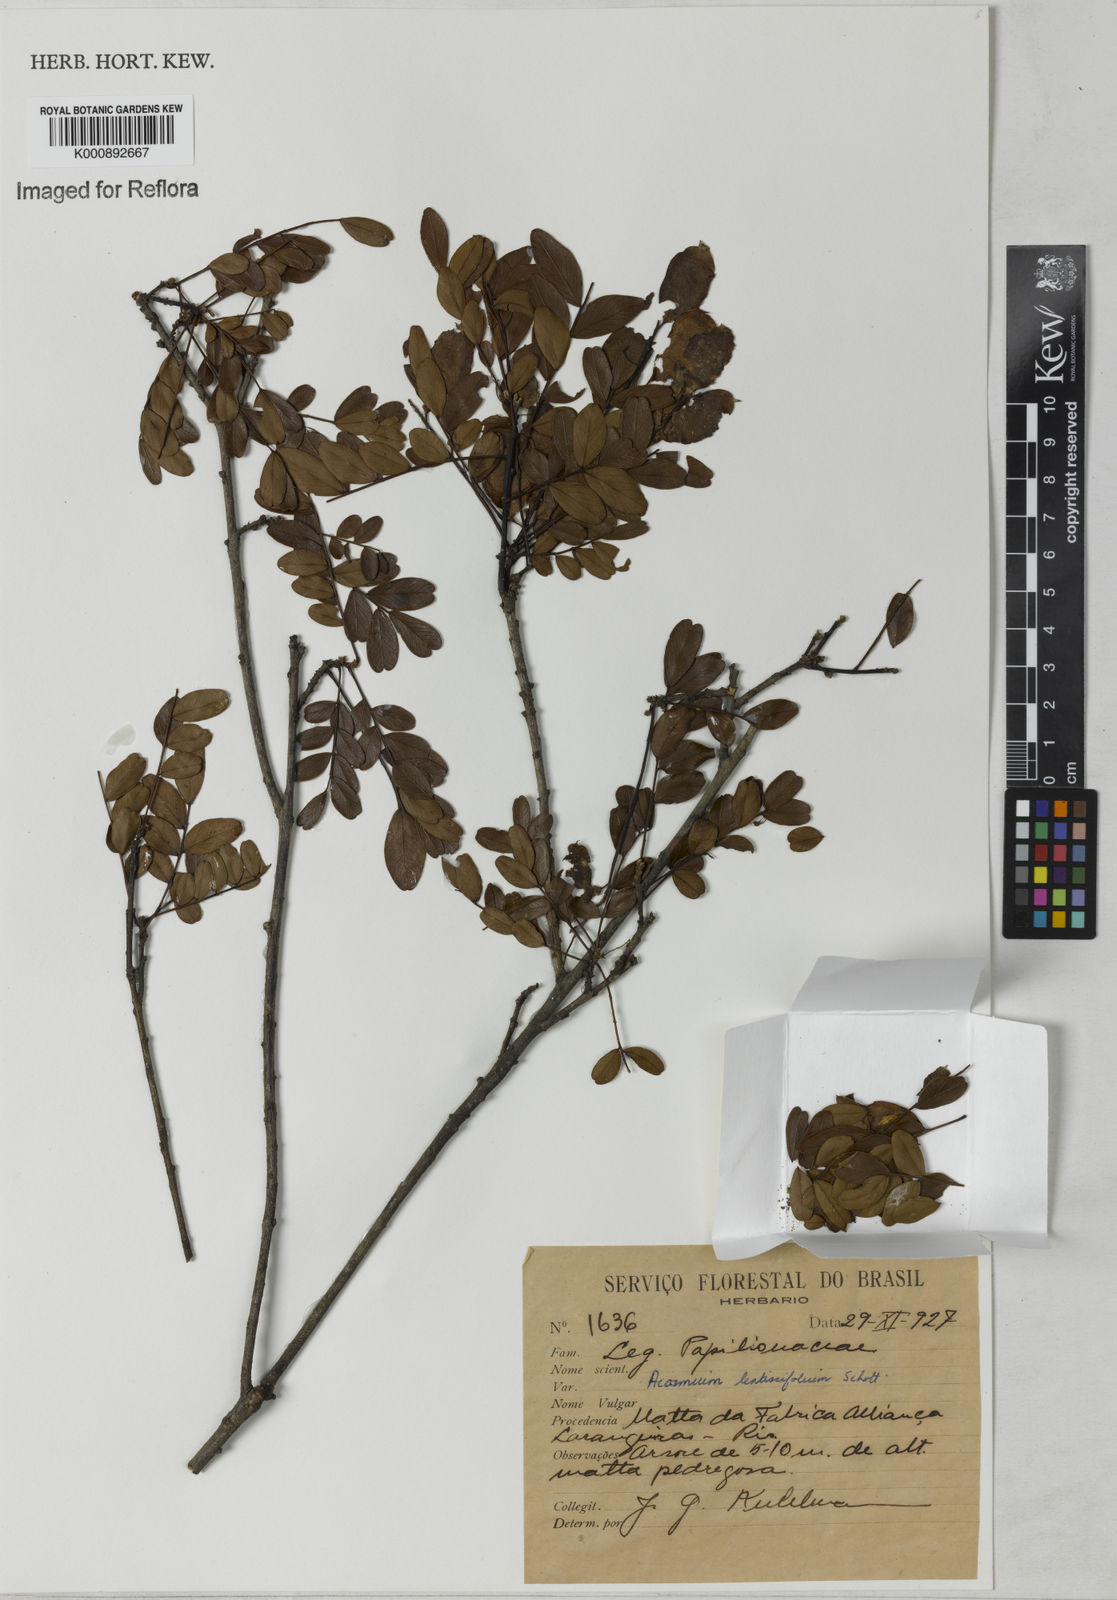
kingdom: Plantae
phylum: Tracheophyta
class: Magnoliopsida
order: Fabales
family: Fabaceae
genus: Acosmium
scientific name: Acosmium lentiscifolium
